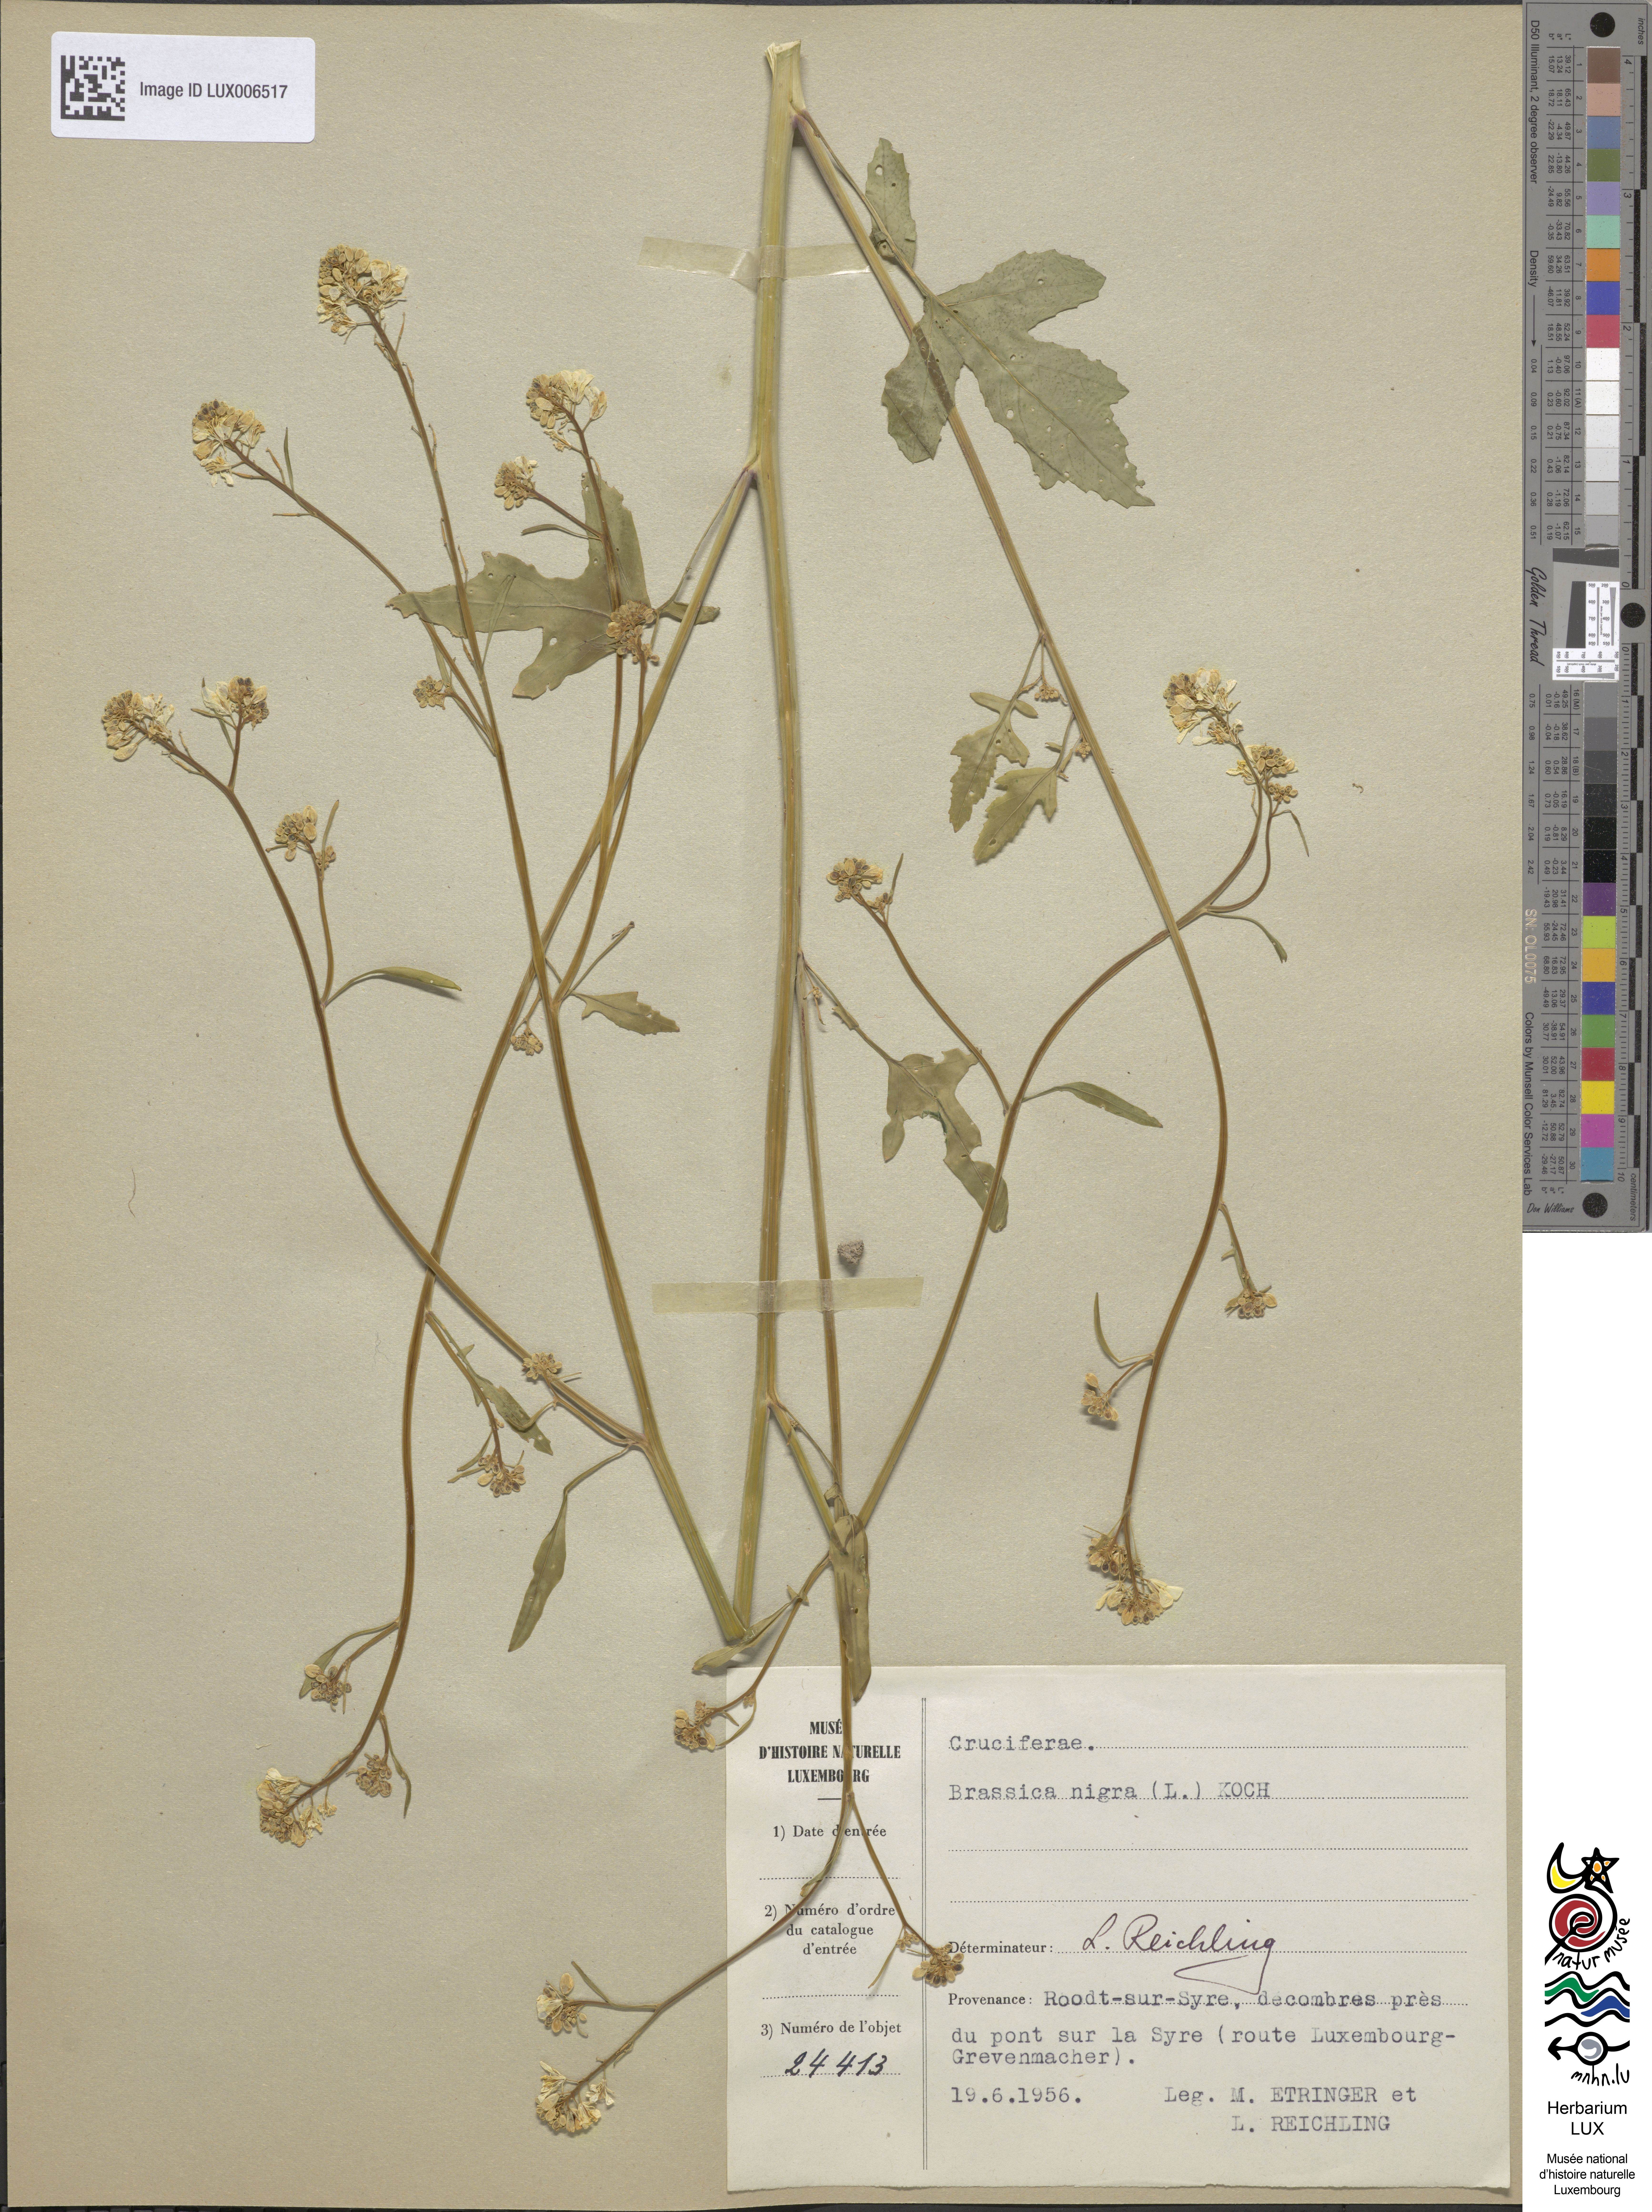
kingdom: Plantae
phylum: Tracheophyta
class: Magnoliopsida
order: Brassicales
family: Brassicaceae
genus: Brassica
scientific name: Brassica nigra
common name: Black mustard
